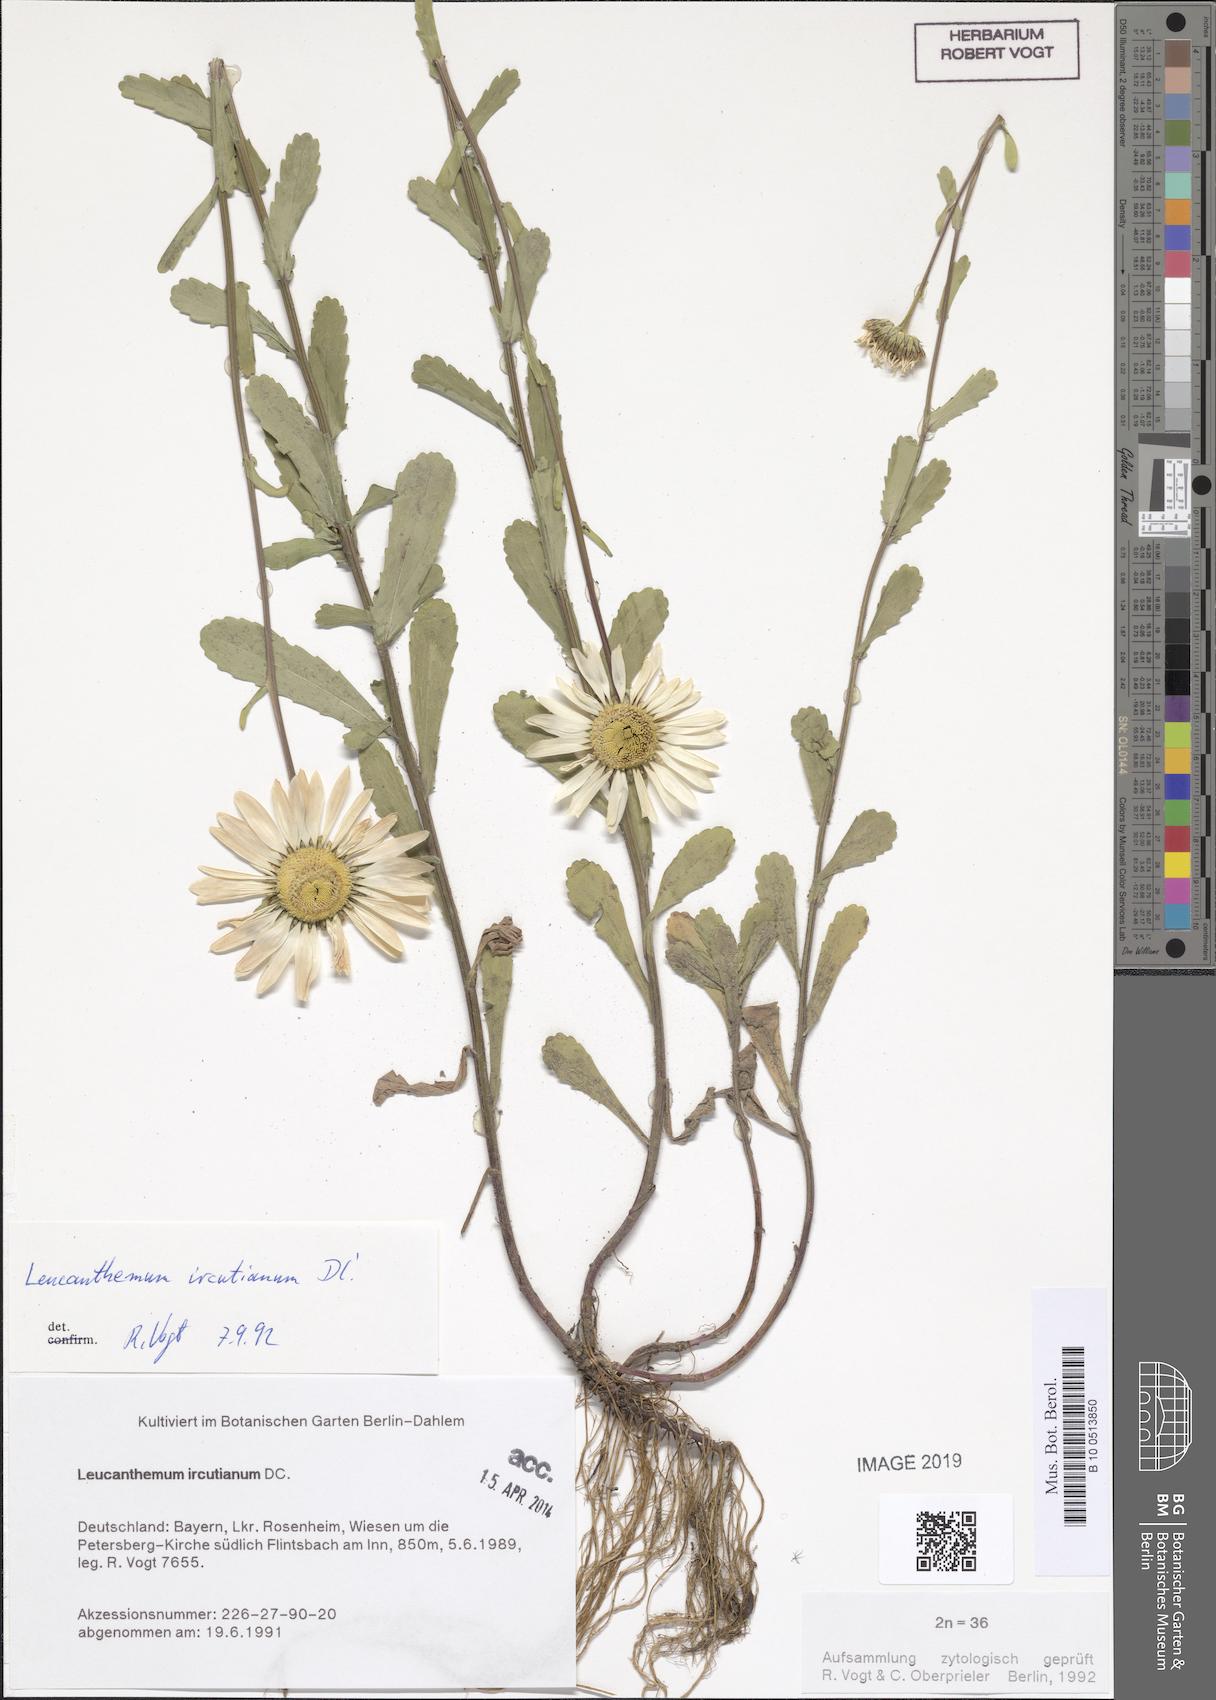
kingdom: Plantae
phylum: Tracheophyta
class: Magnoliopsida
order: Asterales
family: Asteraceae
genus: Leucanthemum
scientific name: Leucanthemum ircutianum
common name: Daisy
